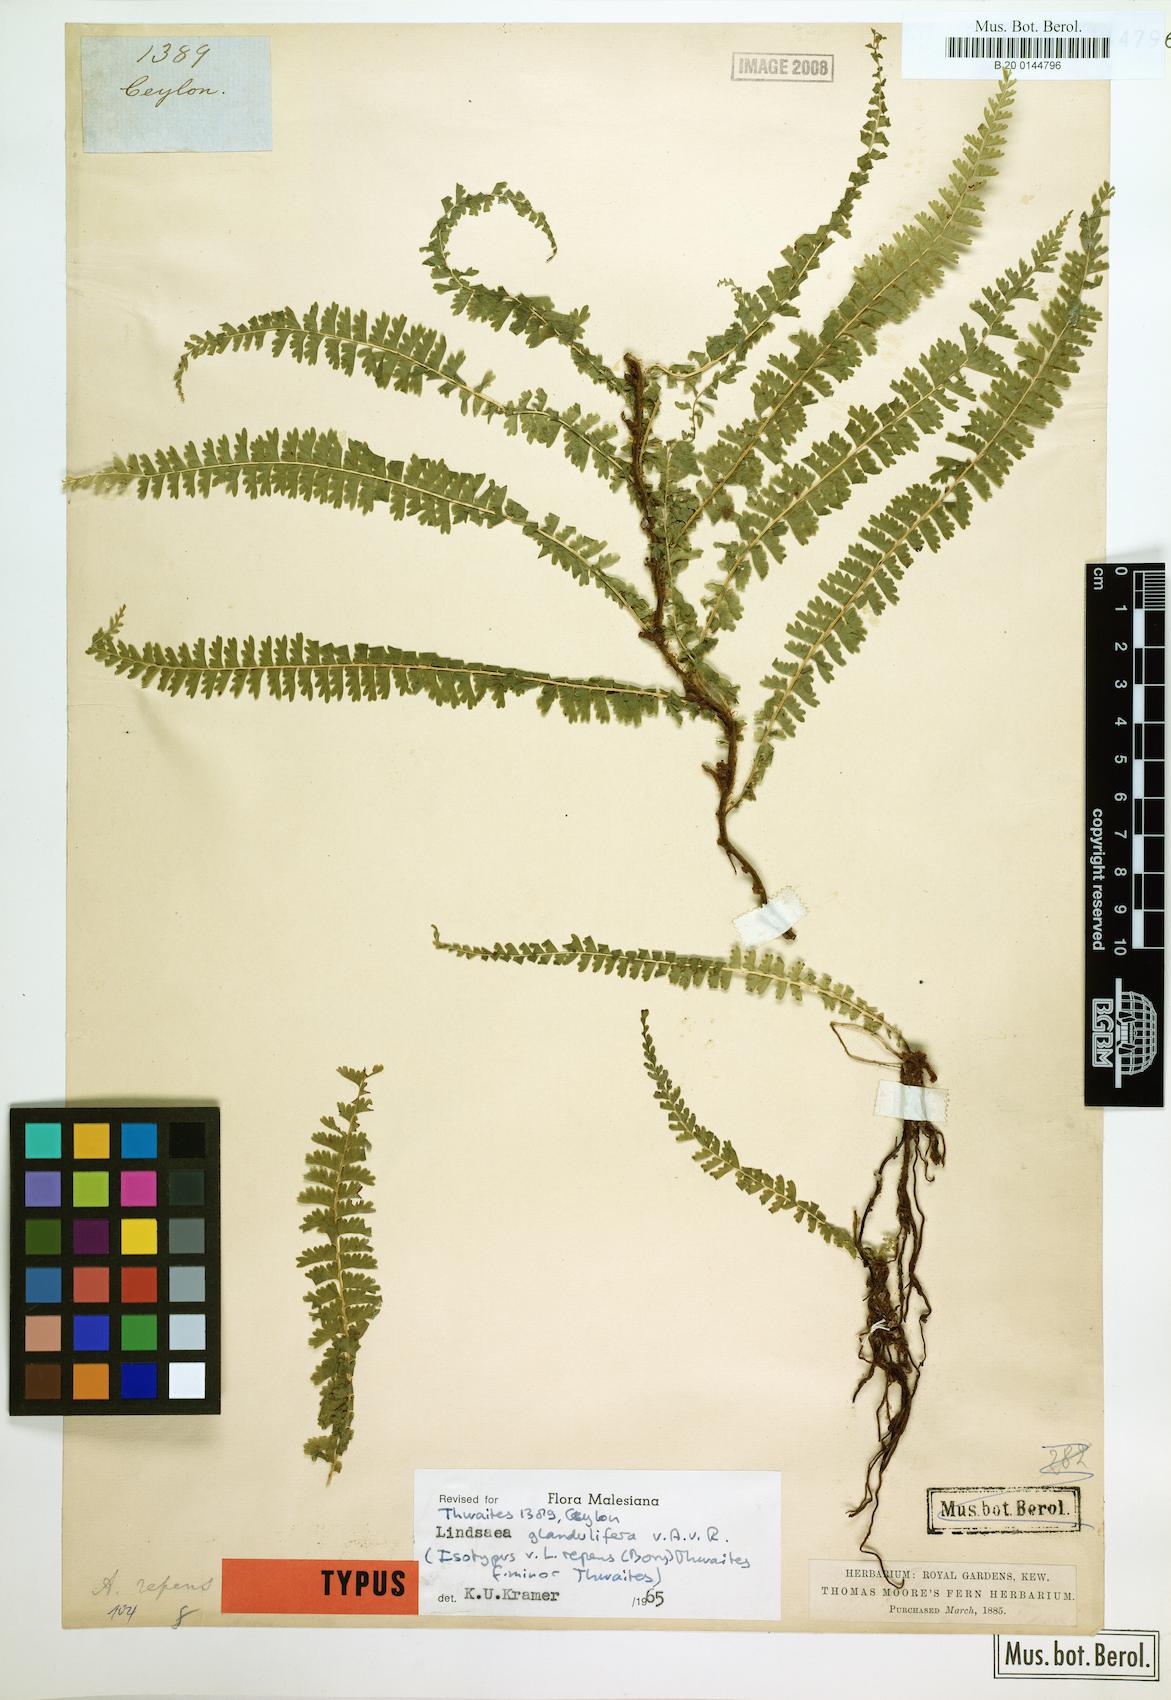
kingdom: Plantae
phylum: Tracheophyta
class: Polypodiopsida
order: Polypodiales
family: Lindsaeaceae
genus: Lindsaea
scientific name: Lindsaea glandulifera
